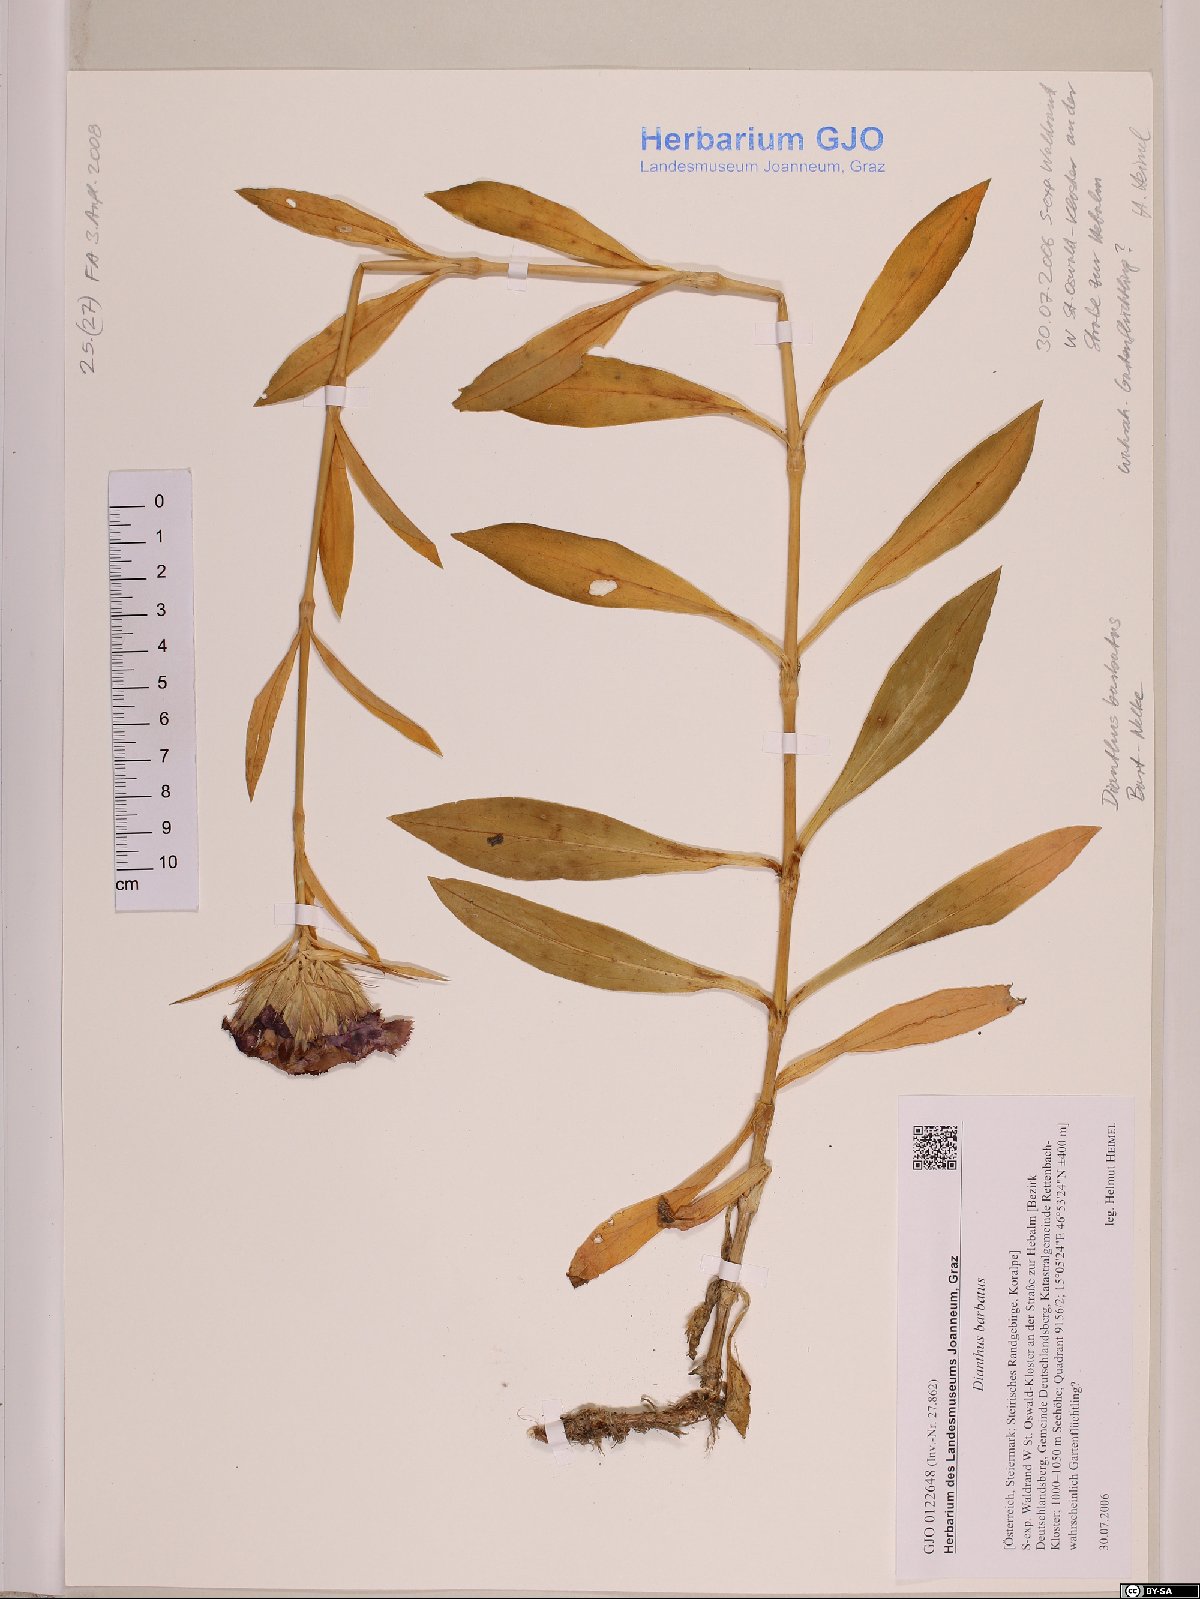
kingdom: Plantae
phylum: Tracheophyta
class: Magnoliopsida
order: Caryophyllales
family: Caryophyllaceae
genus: Dianthus
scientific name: Dianthus barbatus
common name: Sweet-william
